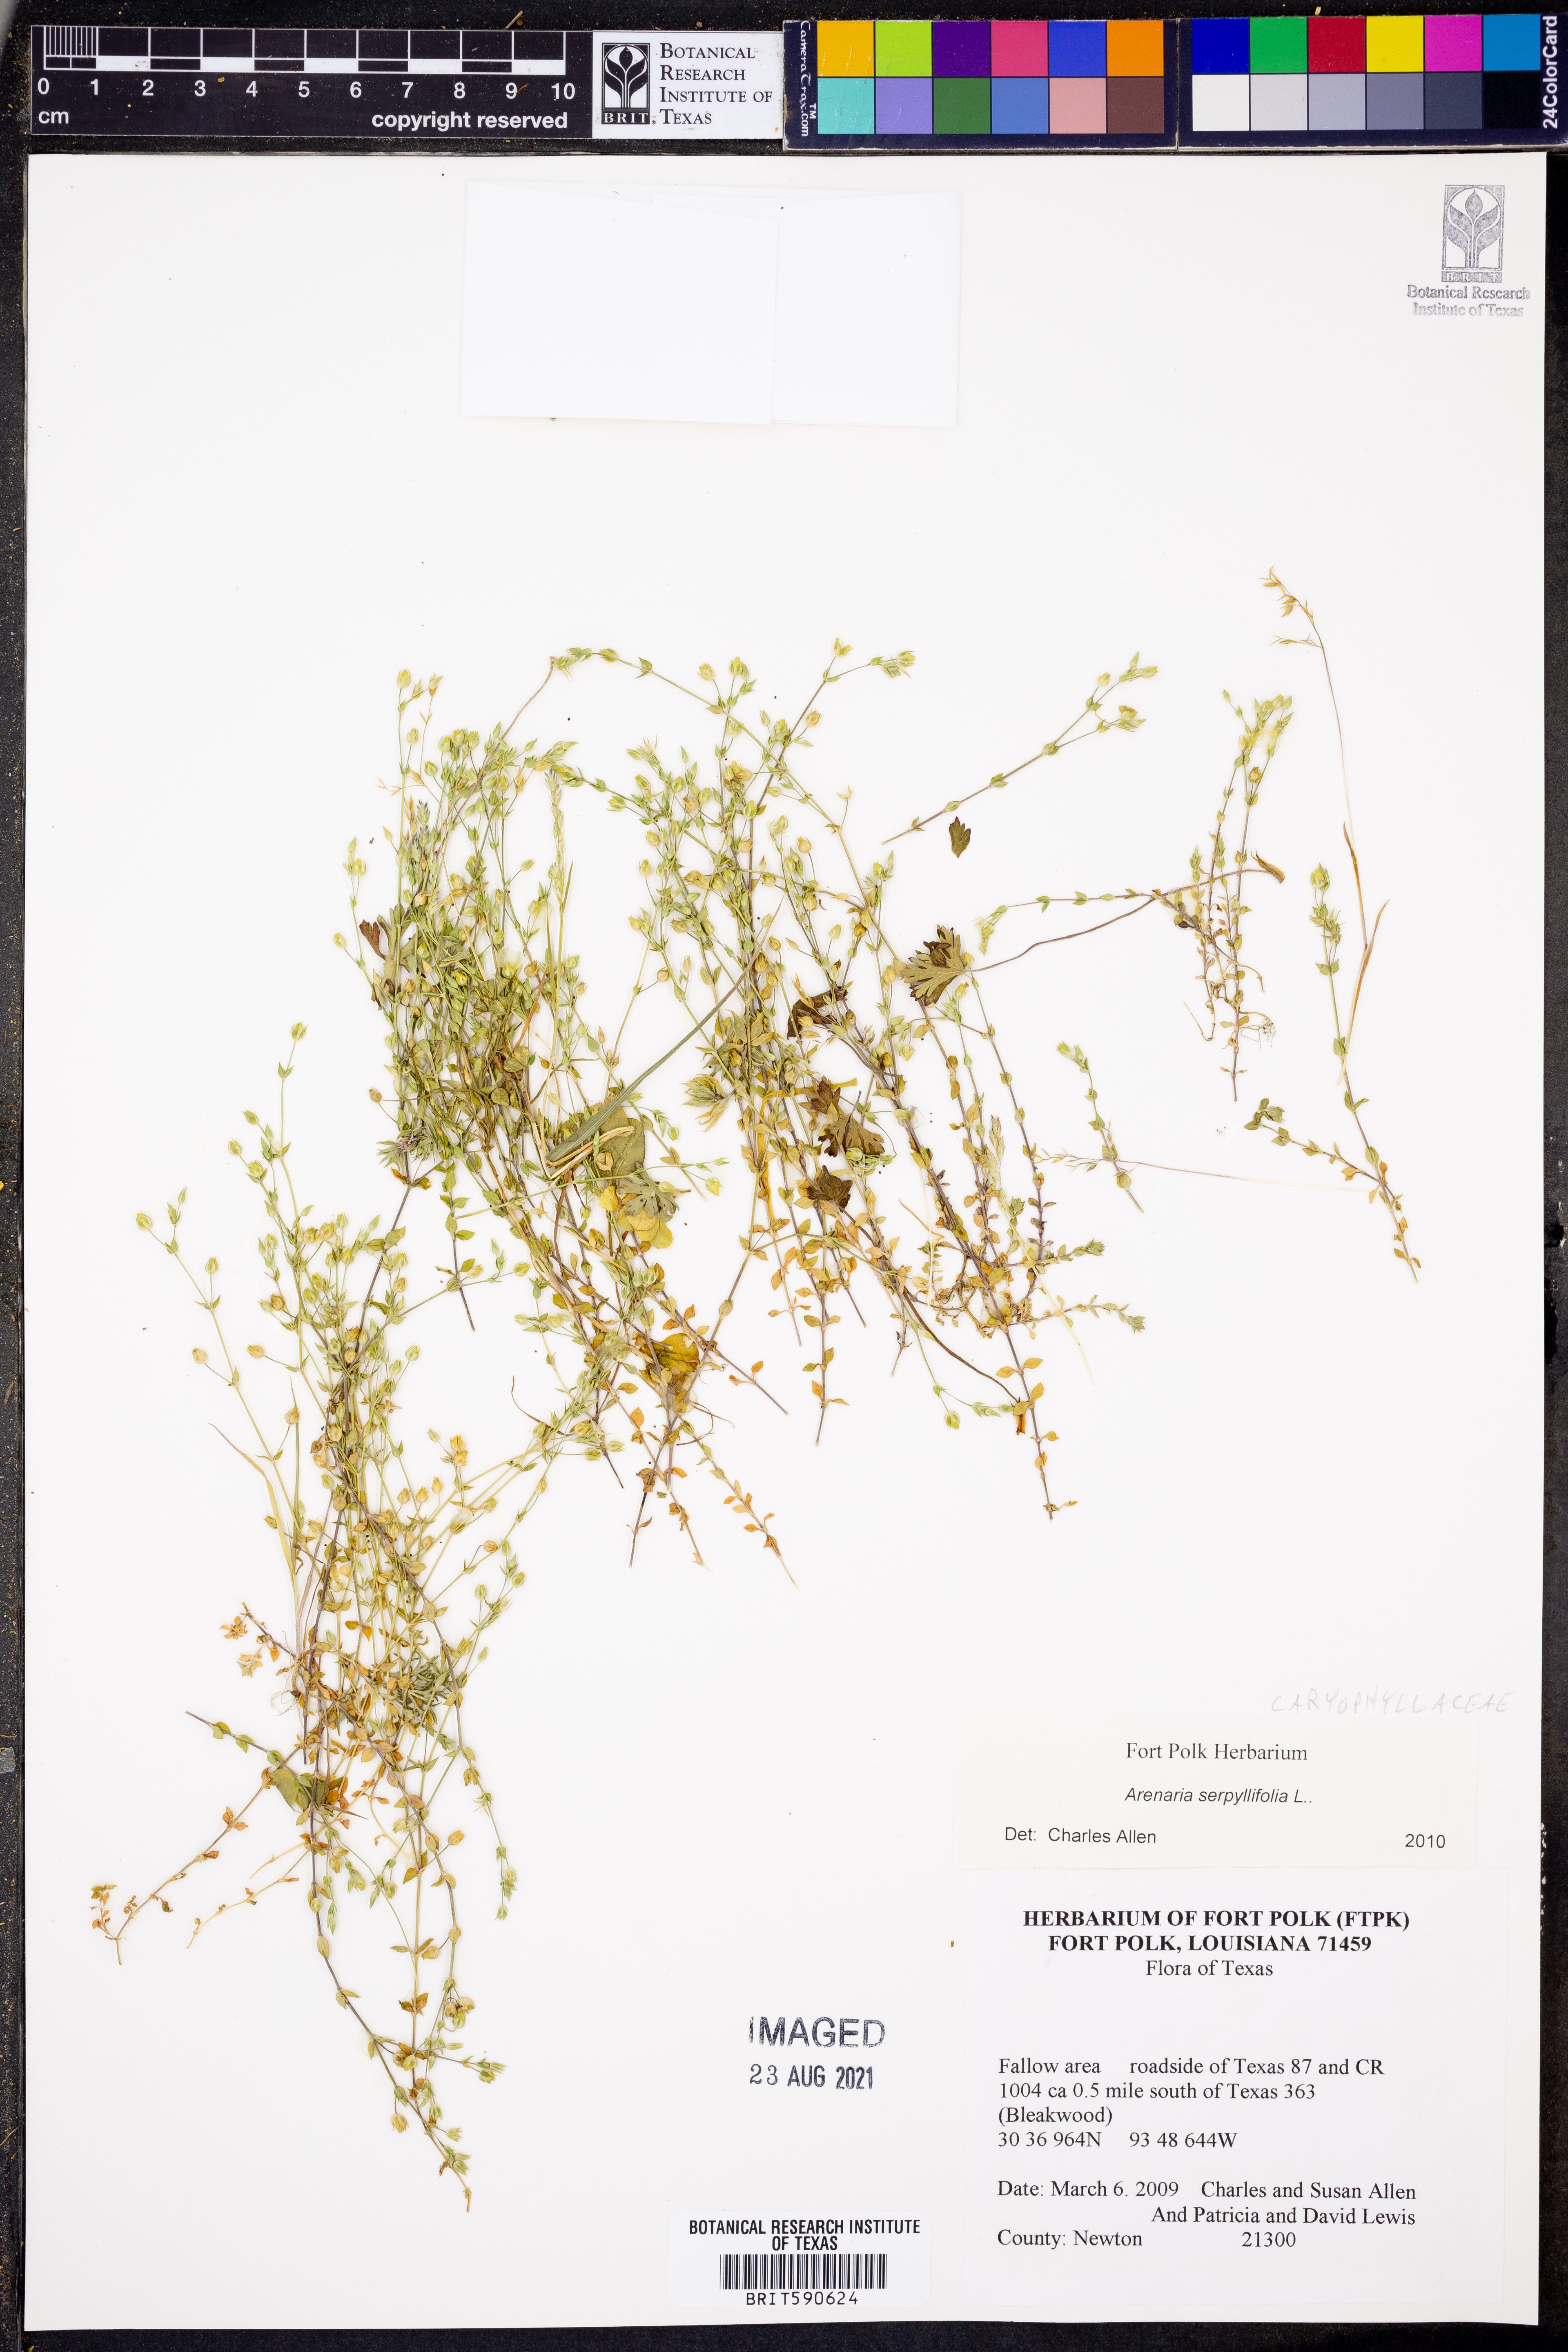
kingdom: Plantae
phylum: Tracheophyta
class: Magnoliopsida
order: Caryophyllales
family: Caryophyllaceae
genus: Arenaria
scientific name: Arenaria serpyllifolia
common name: Thyme-leaved sandwort
